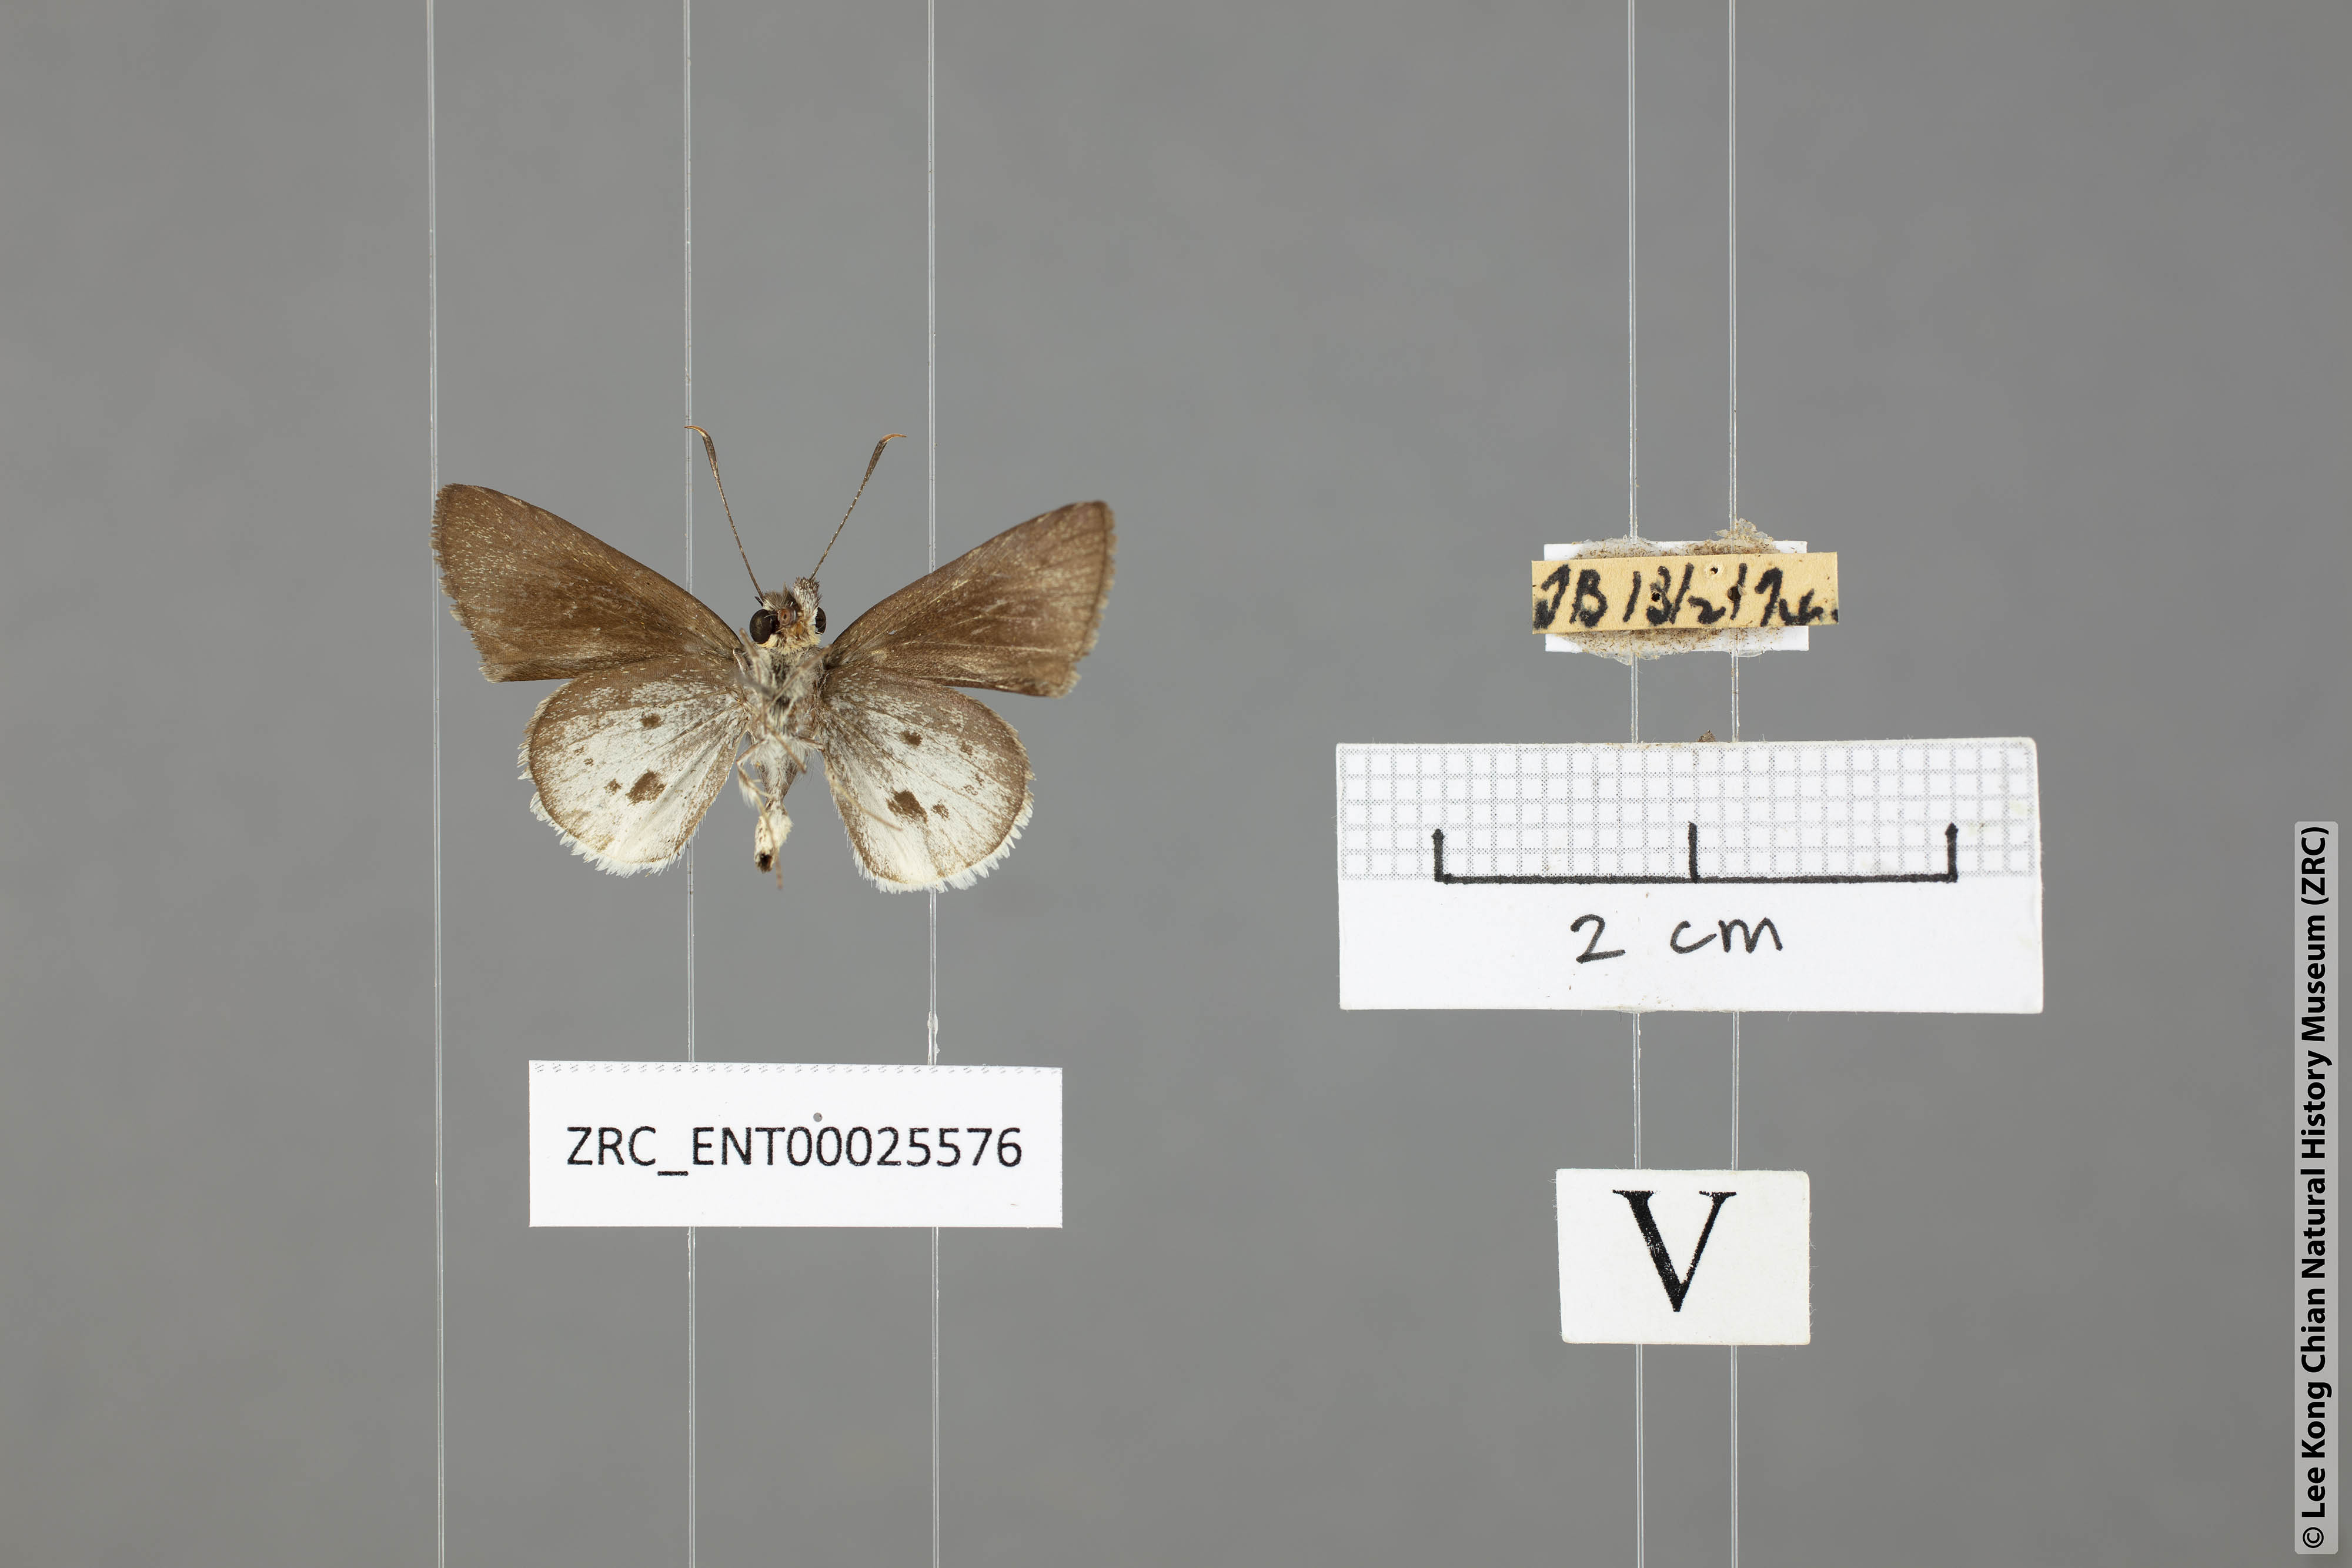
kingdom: Animalia
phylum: Arthropoda
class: Insecta
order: Lepidoptera
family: Hesperiidae
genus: Suastus
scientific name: Suastus everyx
